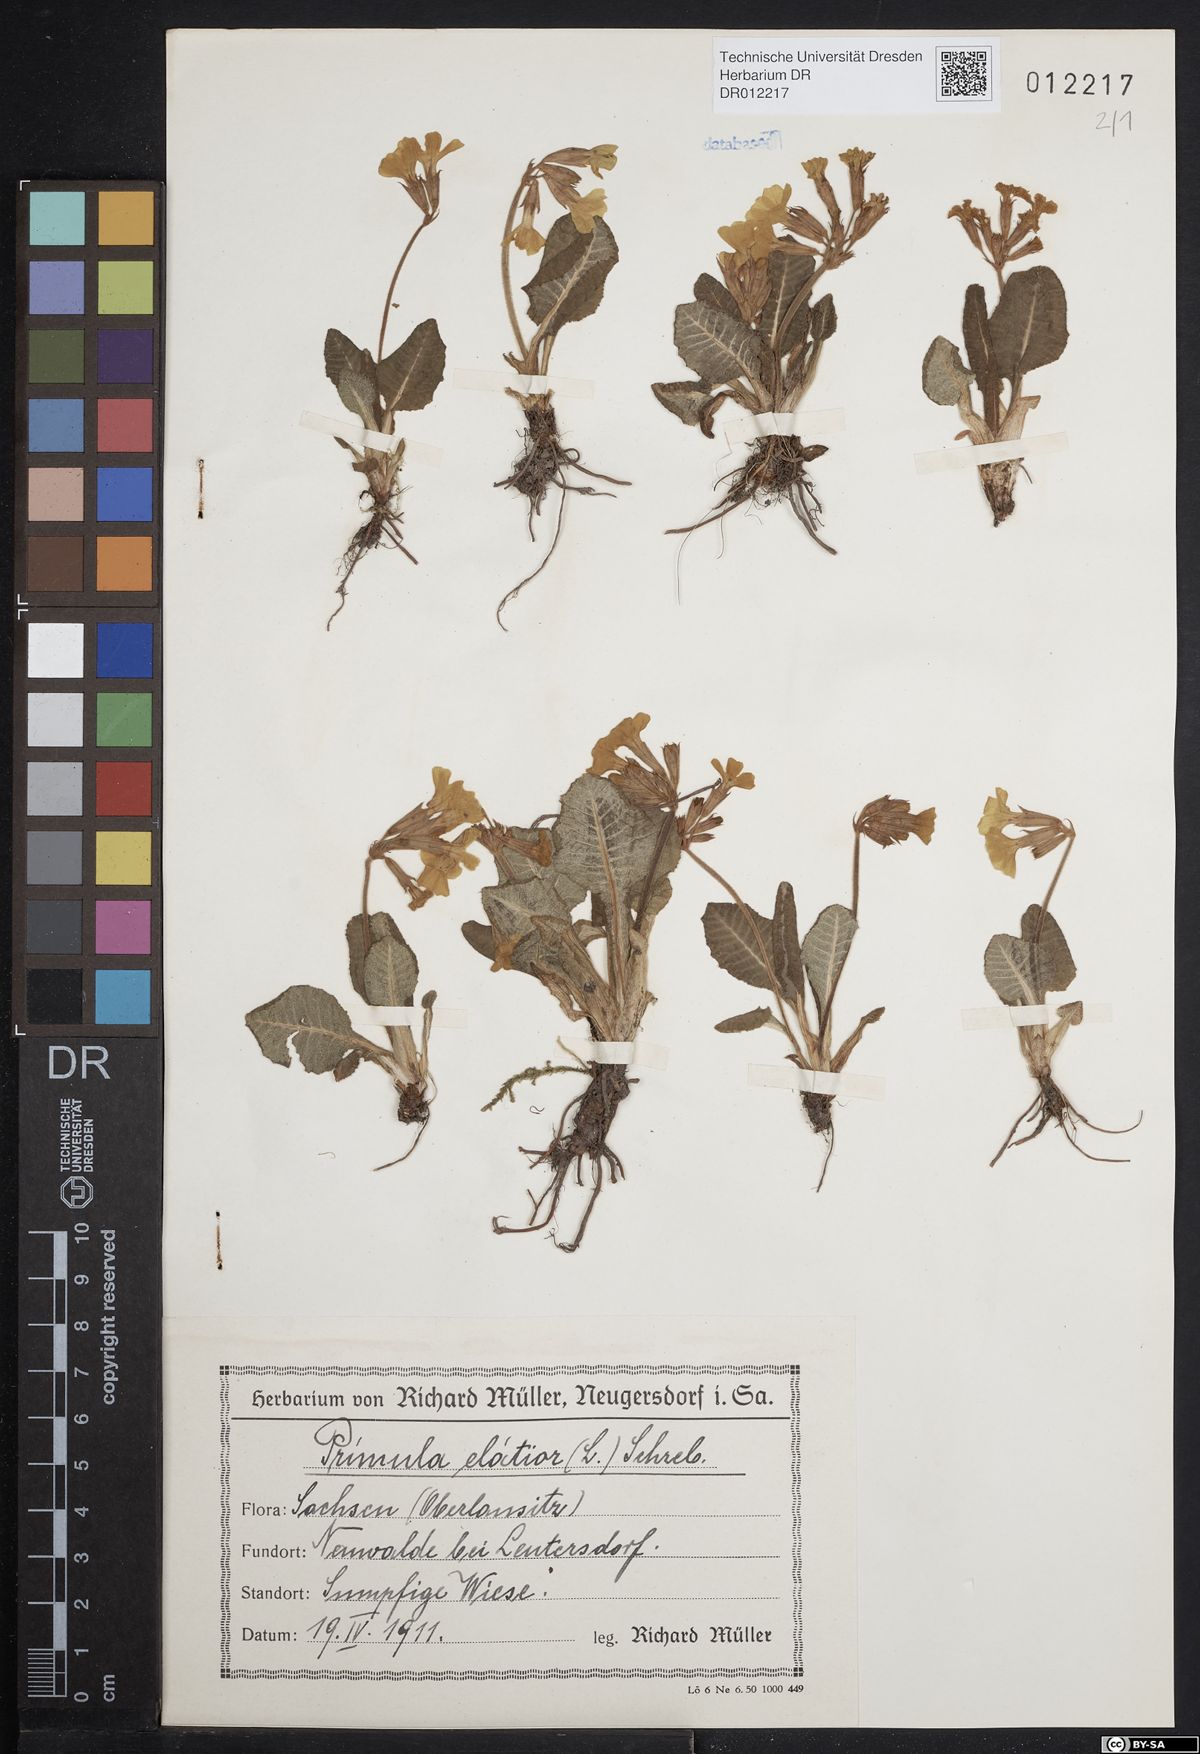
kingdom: Plantae
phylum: Tracheophyta
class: Magnoliopsida
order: Ericales
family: Primulaceae
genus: Primula
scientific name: Primula elatior
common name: Oxlip
